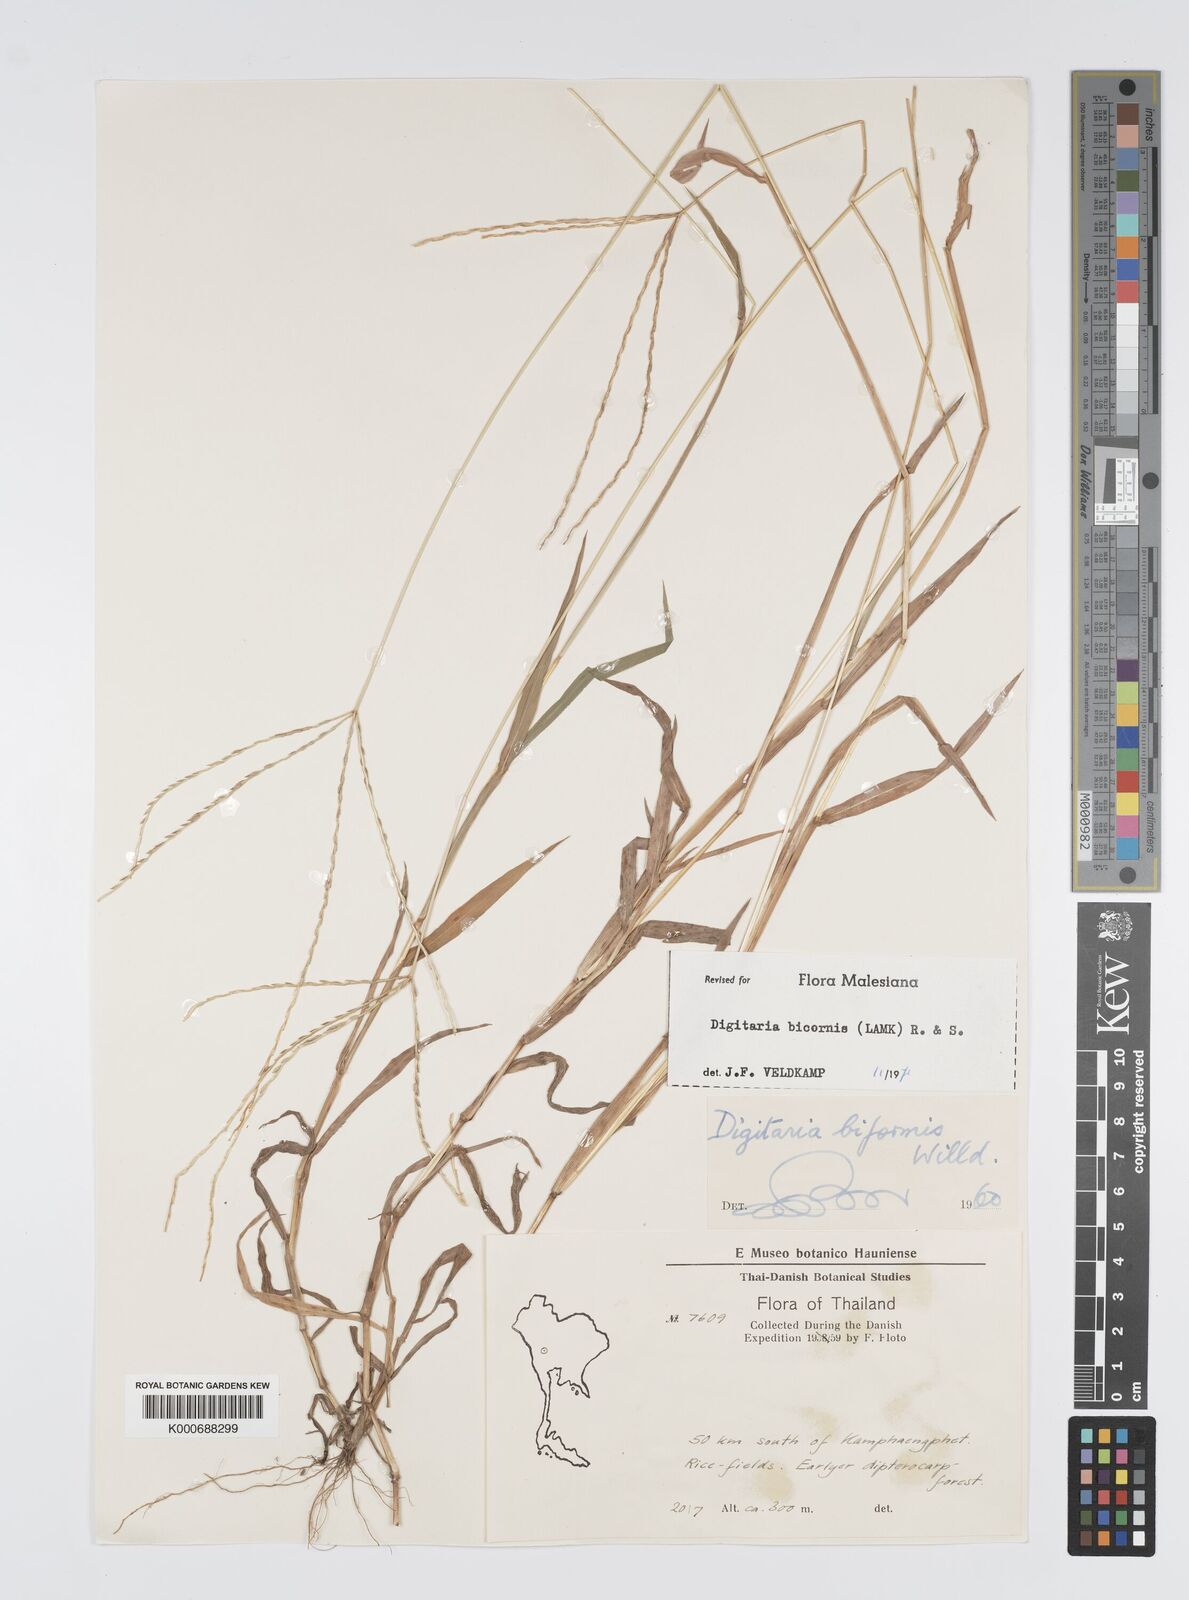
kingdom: Plantae
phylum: Tracheophyta
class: Liliopsida
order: Poales
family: Poaceae
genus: Digitaria
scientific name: Digitaria bicornis
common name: Asian crabgrass
